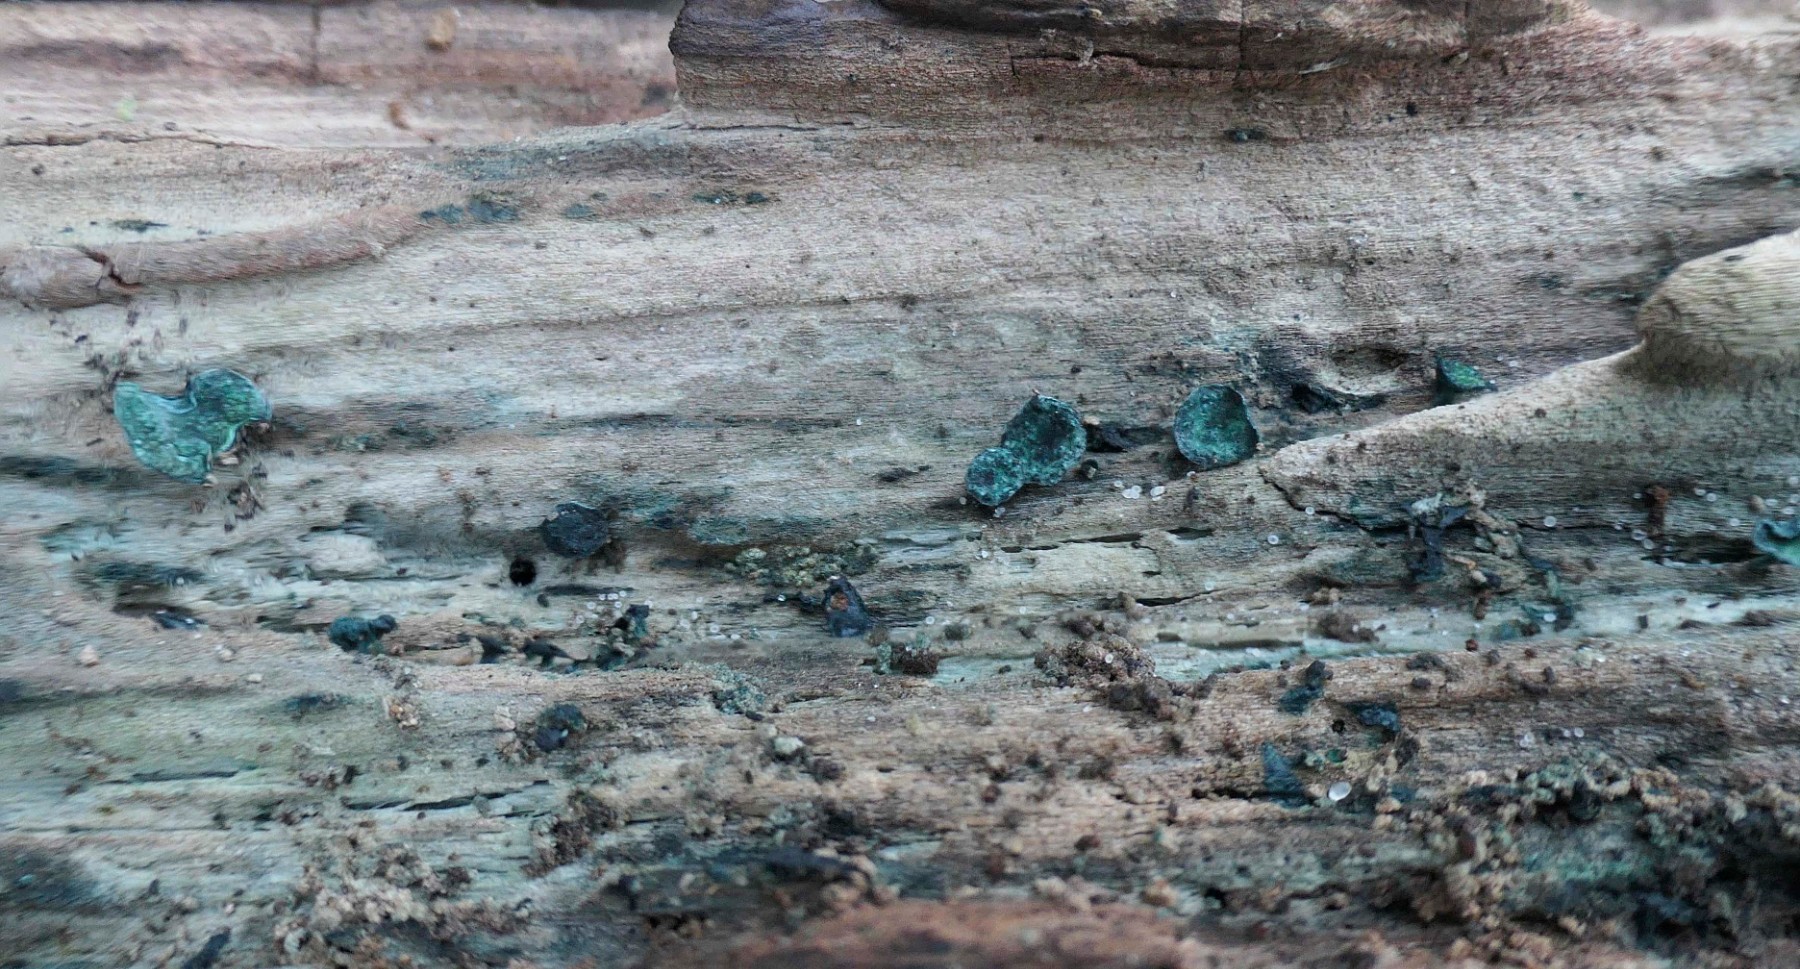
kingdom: Fungi
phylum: Ascomycota
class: Leotiomycetes
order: Helotiales
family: Chlorociboriaceae
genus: Chlorociboria
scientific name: Chlorociboria aeruginascens
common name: almindelig grønskive
